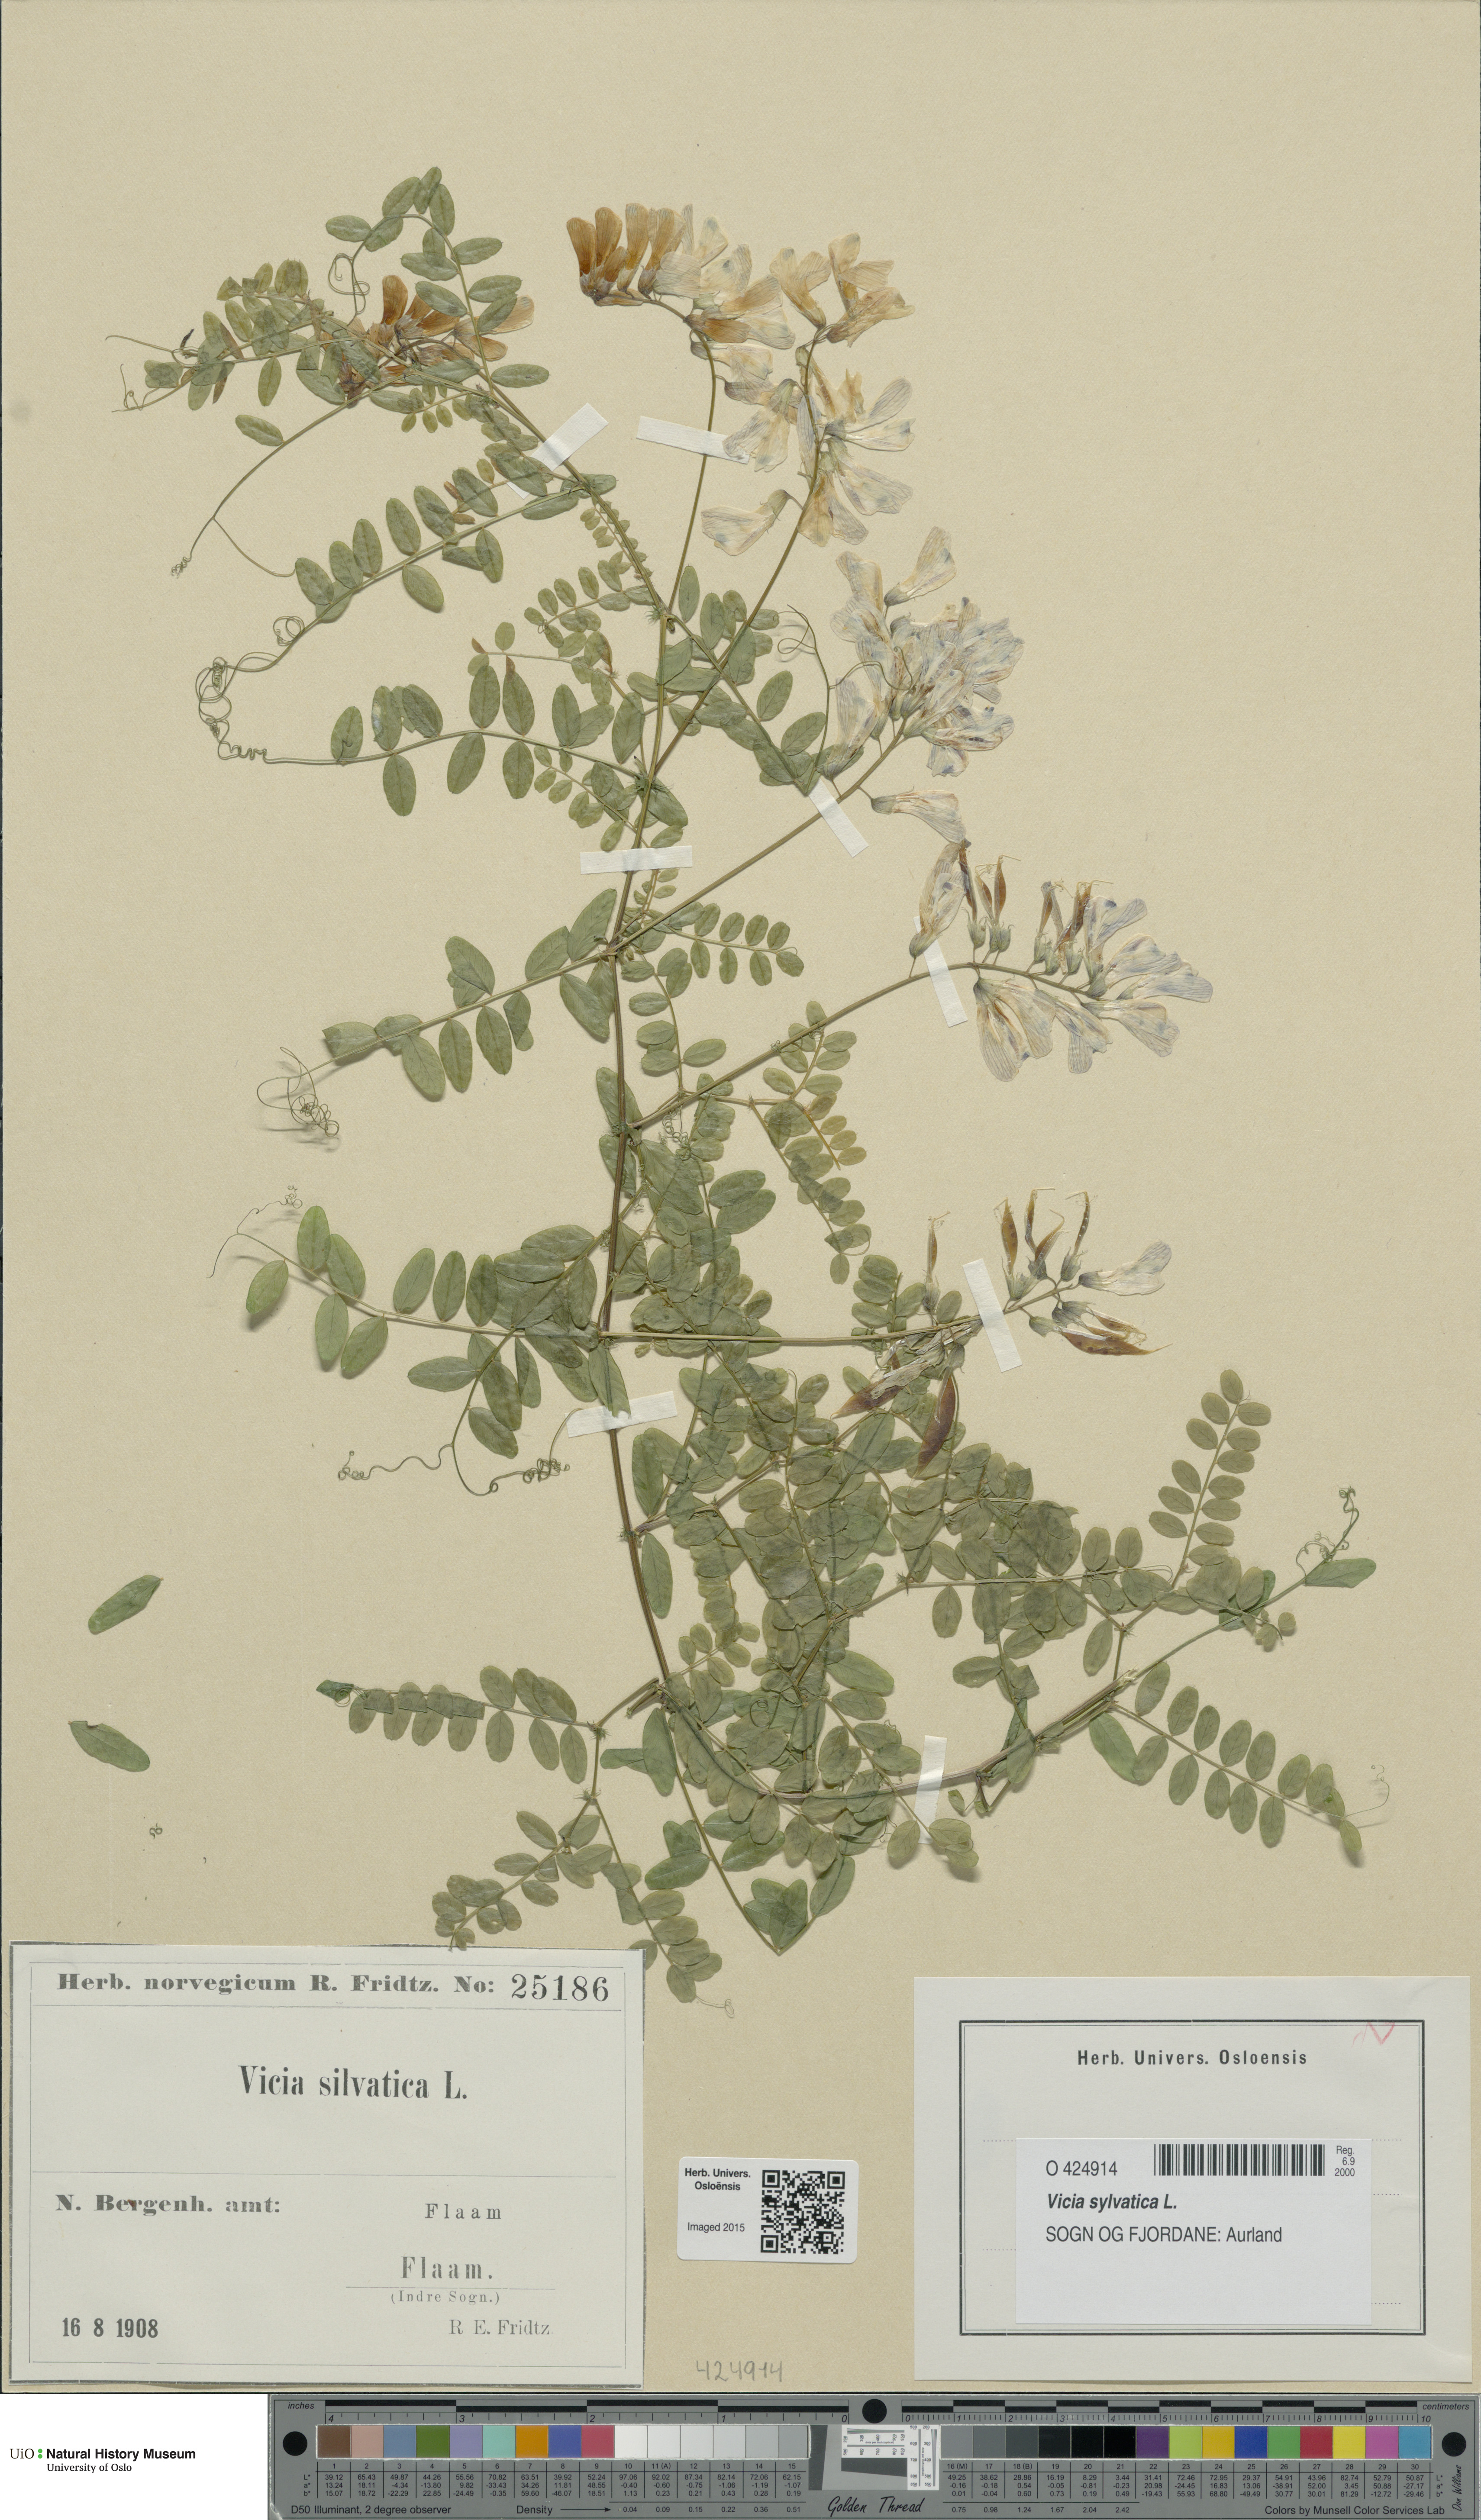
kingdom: Plantae
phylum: Tracheophyta
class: Magnoliopsida
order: Fabales
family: Fabaceae
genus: Vicia
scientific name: Vicia sylvatica
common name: Wood vetch
